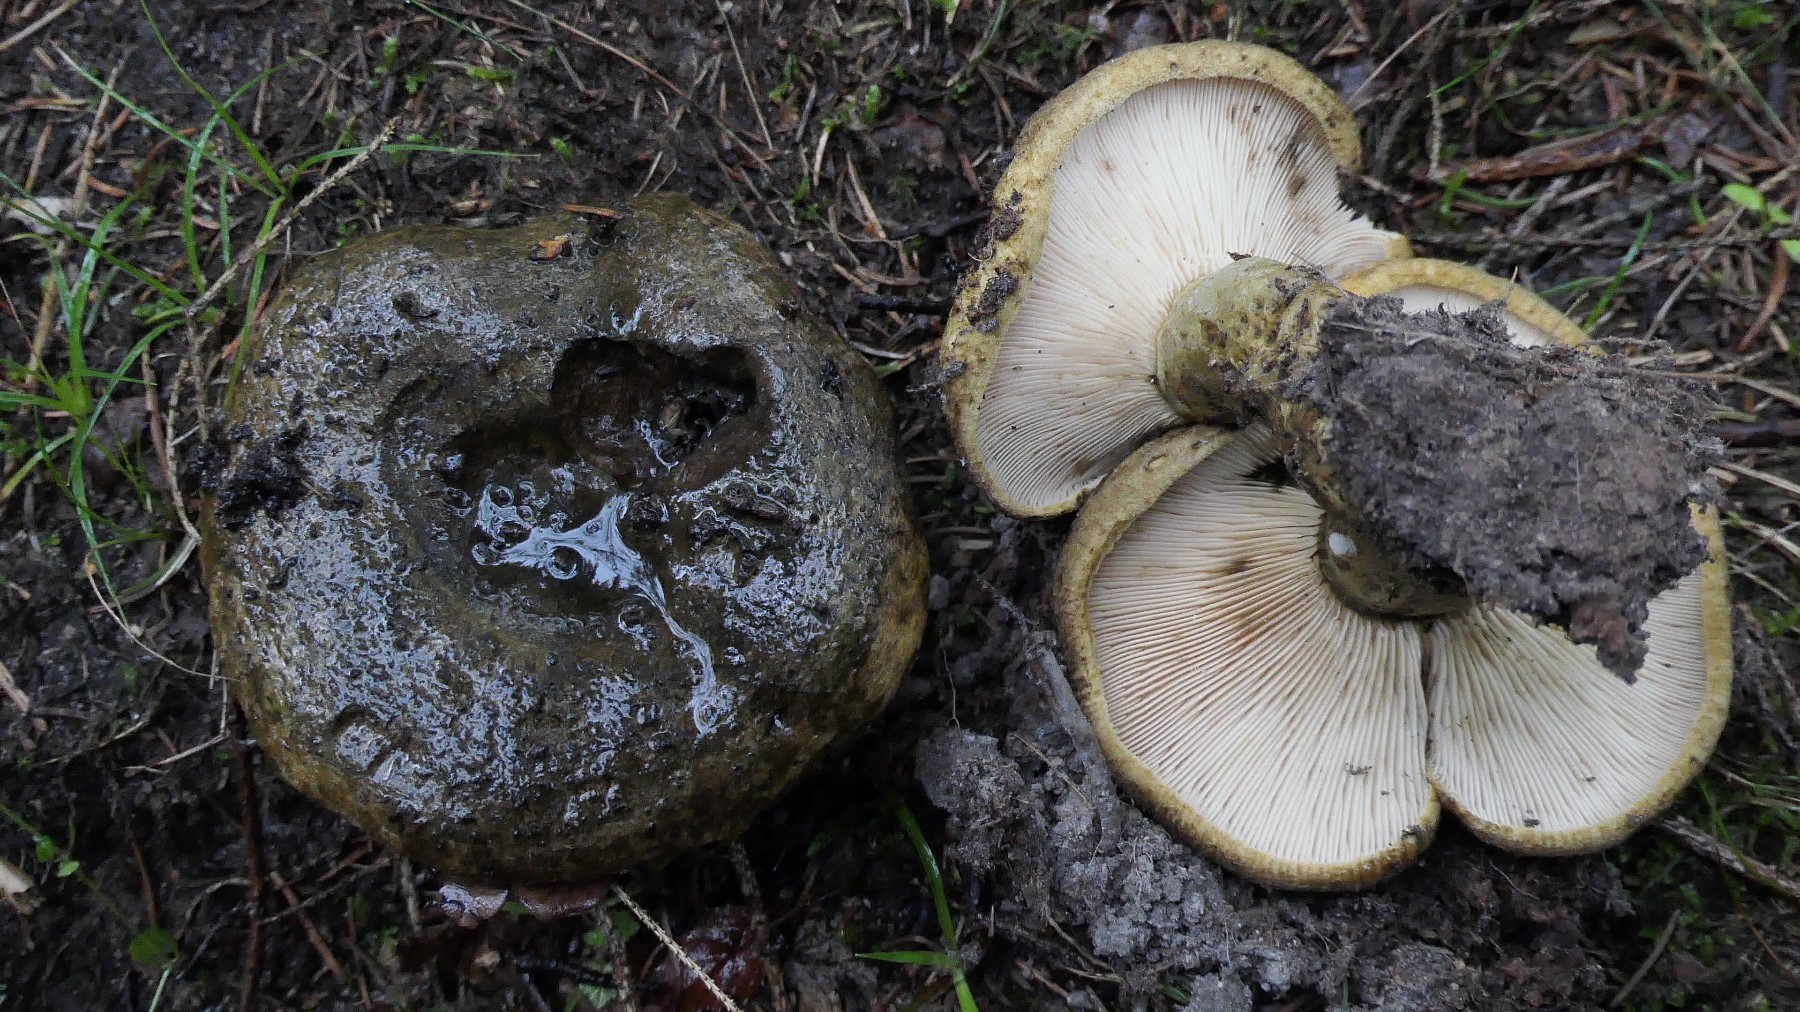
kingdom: Fungi
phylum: Basidiomycota
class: Agaricomycetes
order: Russulales
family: Russulaceae
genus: Lactarius
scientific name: Lactarius necator
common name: manddraber-mælkehat
